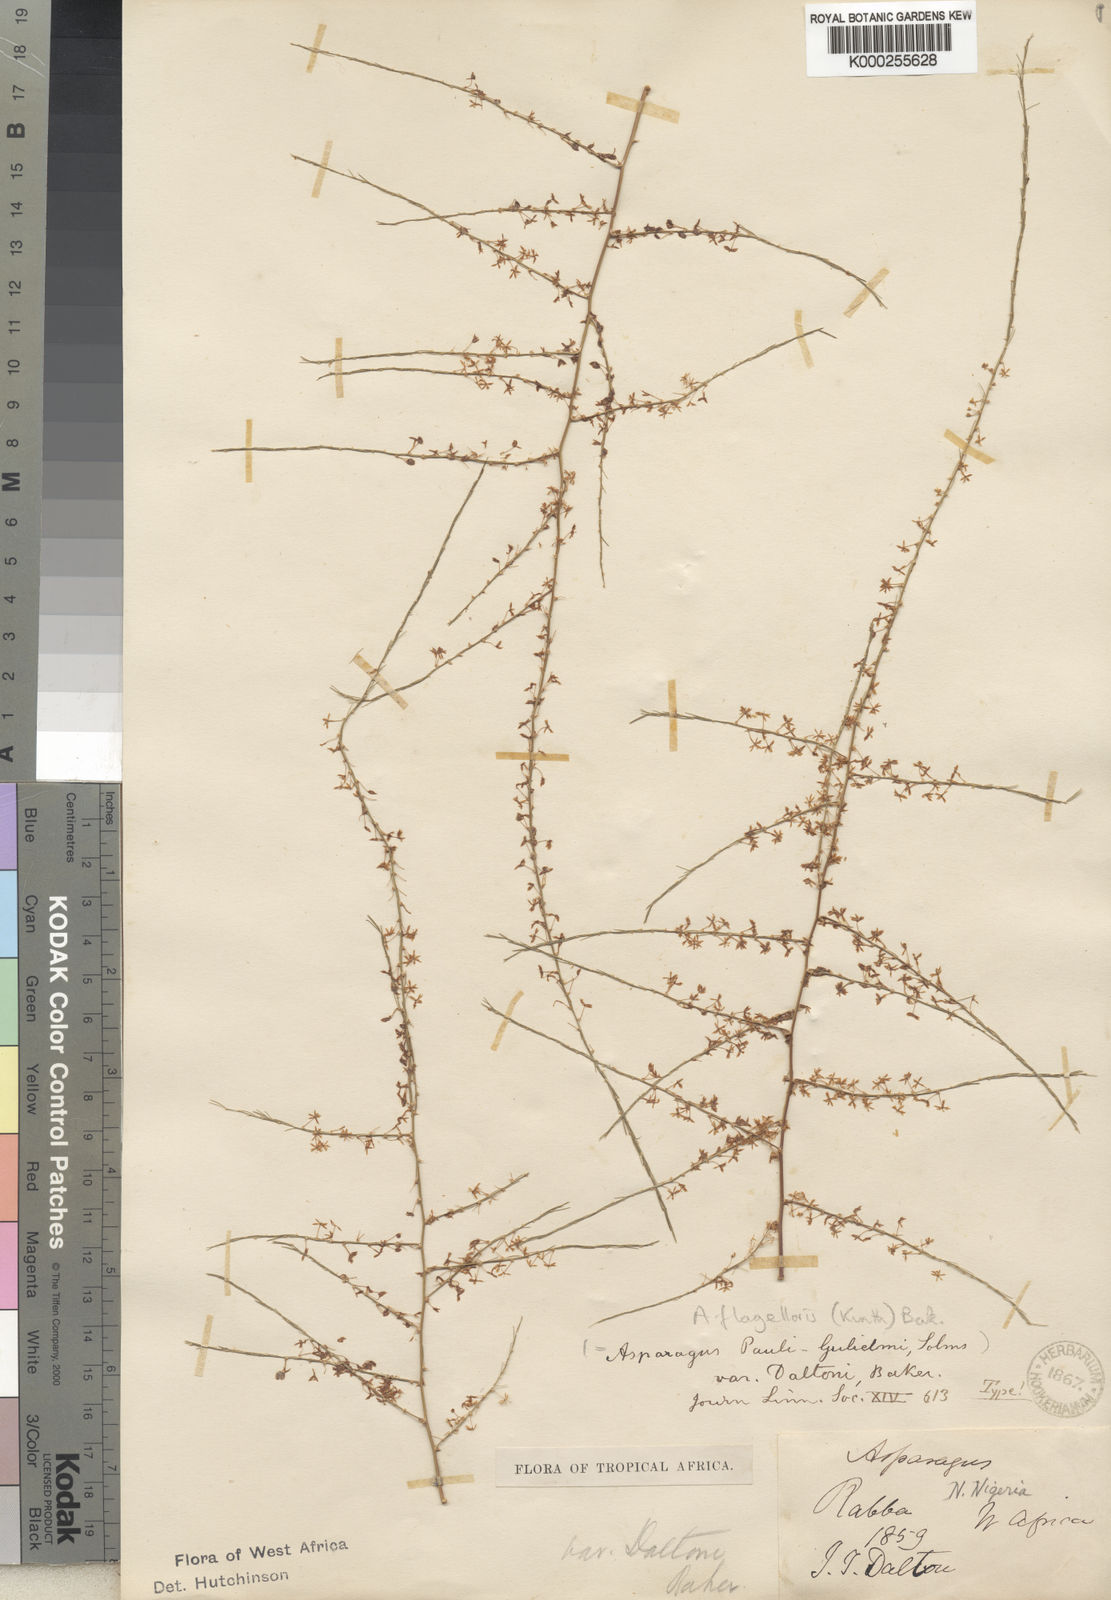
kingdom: Plantae
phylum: Tracheophyta
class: Liliopsida
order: Asparagales
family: Asparagaceae
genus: Asparagus
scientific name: Asparagus flagellaris
